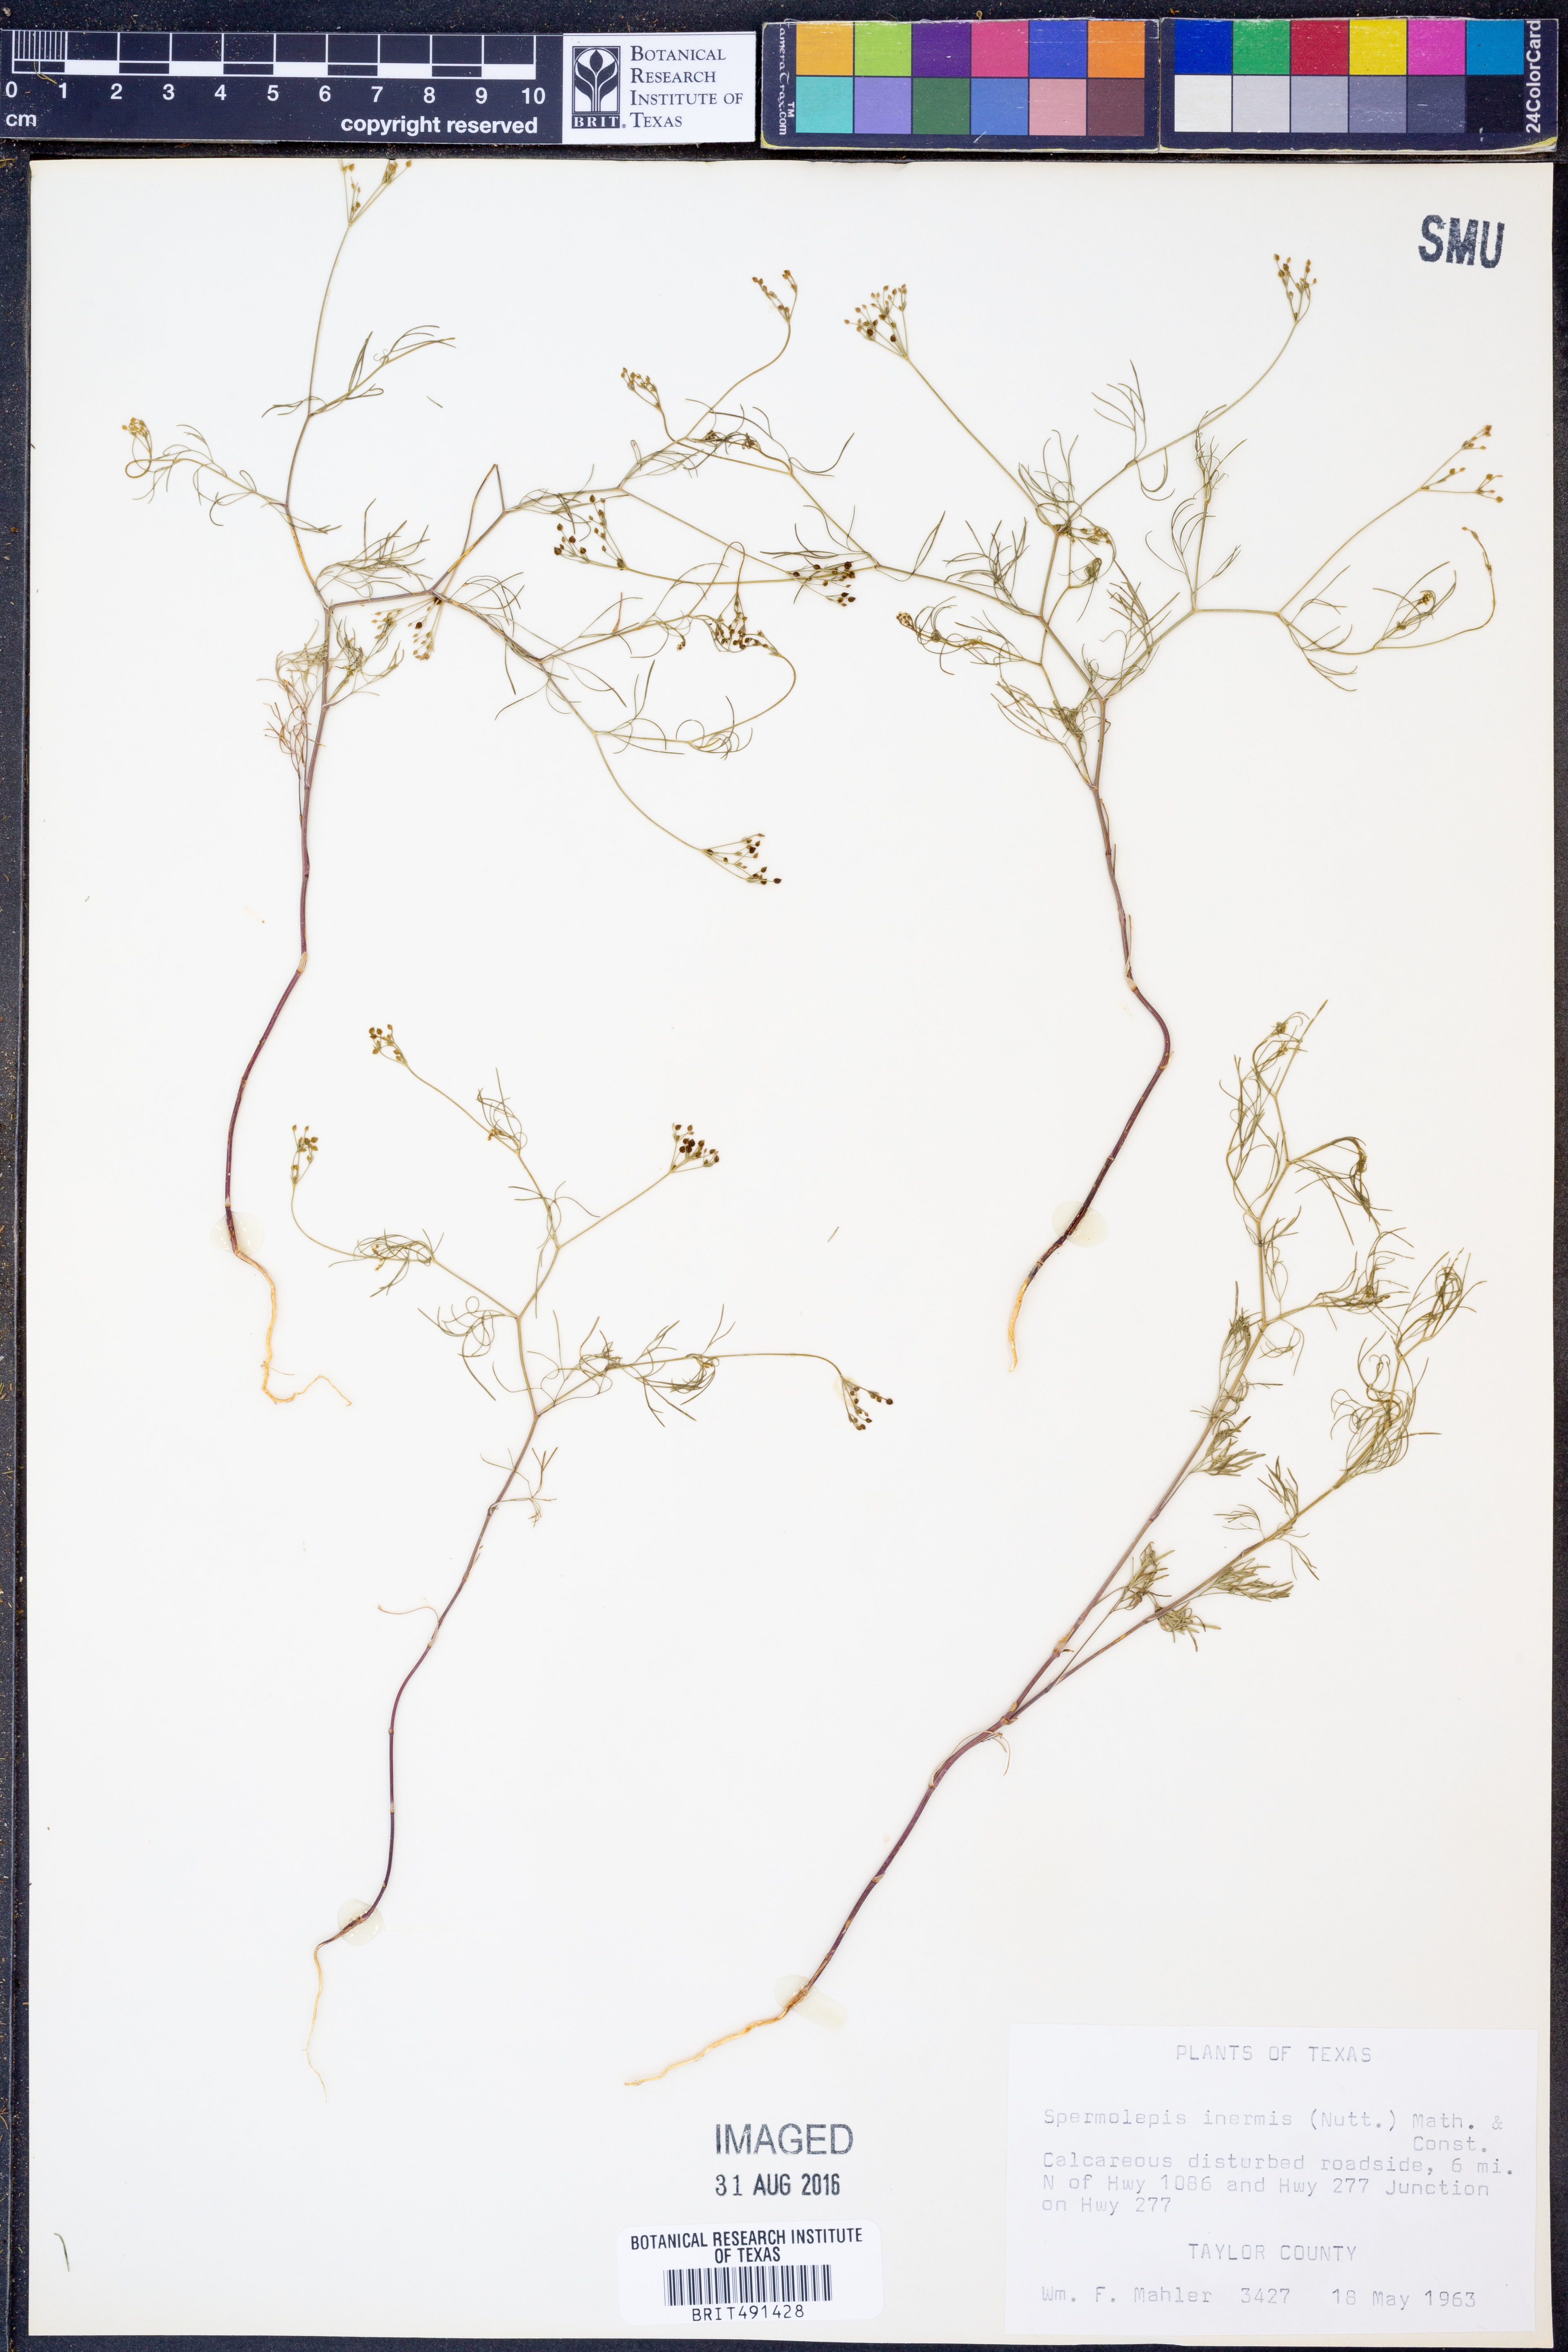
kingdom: Plantae
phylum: Tracheophyta
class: Magnoliopsida
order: Apiales
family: Apiaceae
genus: Spermolepis
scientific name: Spermolepis inermis
